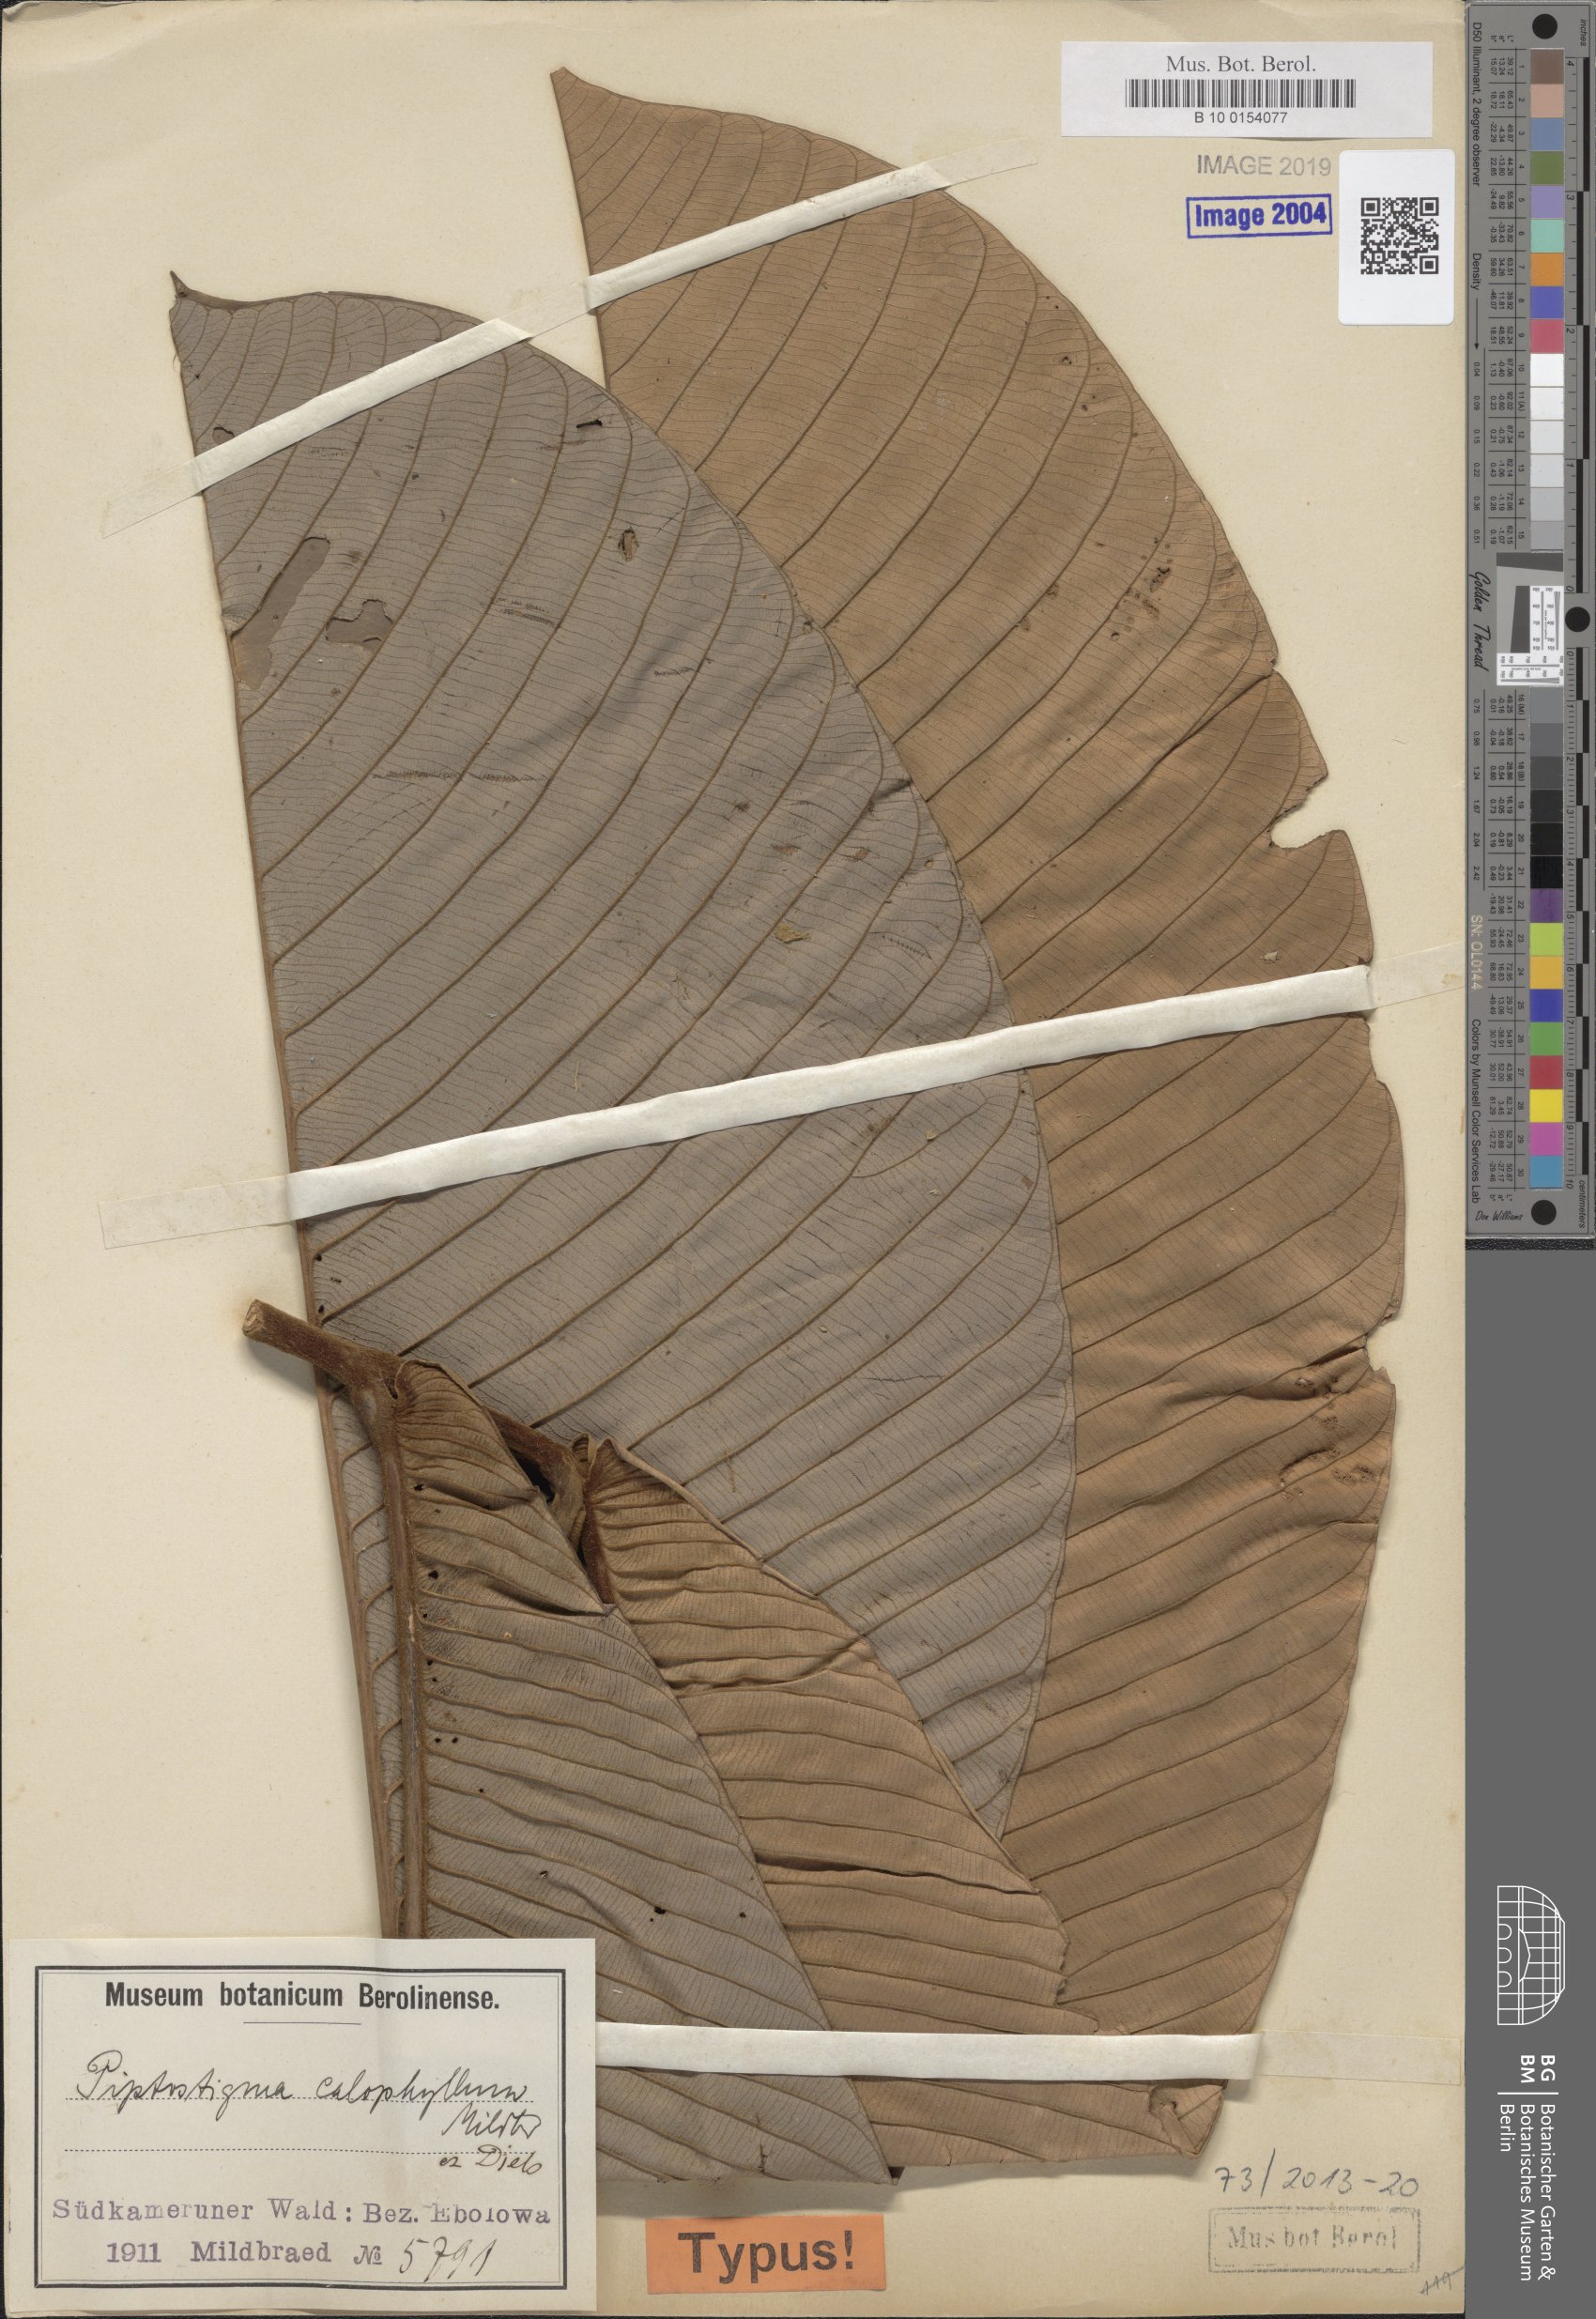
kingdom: Plantae
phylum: Tracheophyta
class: Magnoliopsida
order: Magnoliales
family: Annonaceae
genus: Piptostigma
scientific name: Piptostigma calophyllum
